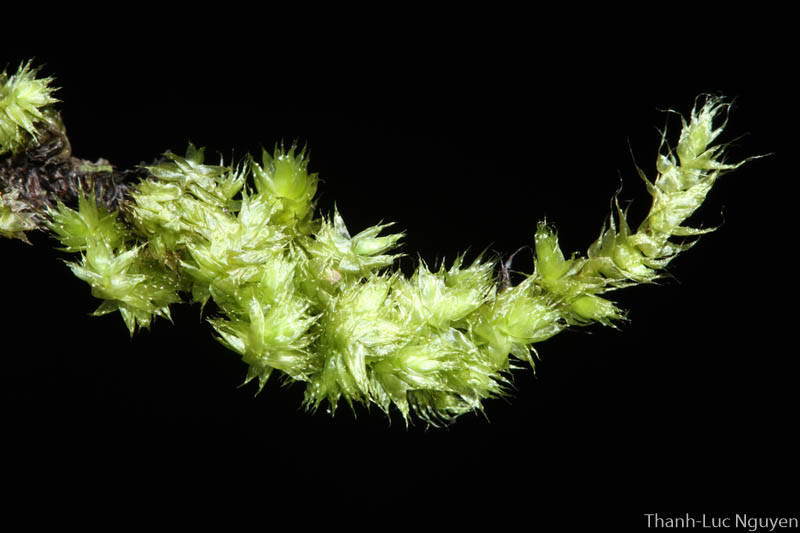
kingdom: Plantae
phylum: Bryophyta
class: Bryopsida
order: Hypnales
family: Meteoriaceae
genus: Pseudotrachypus
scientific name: Pseudotrachypus wallichii
